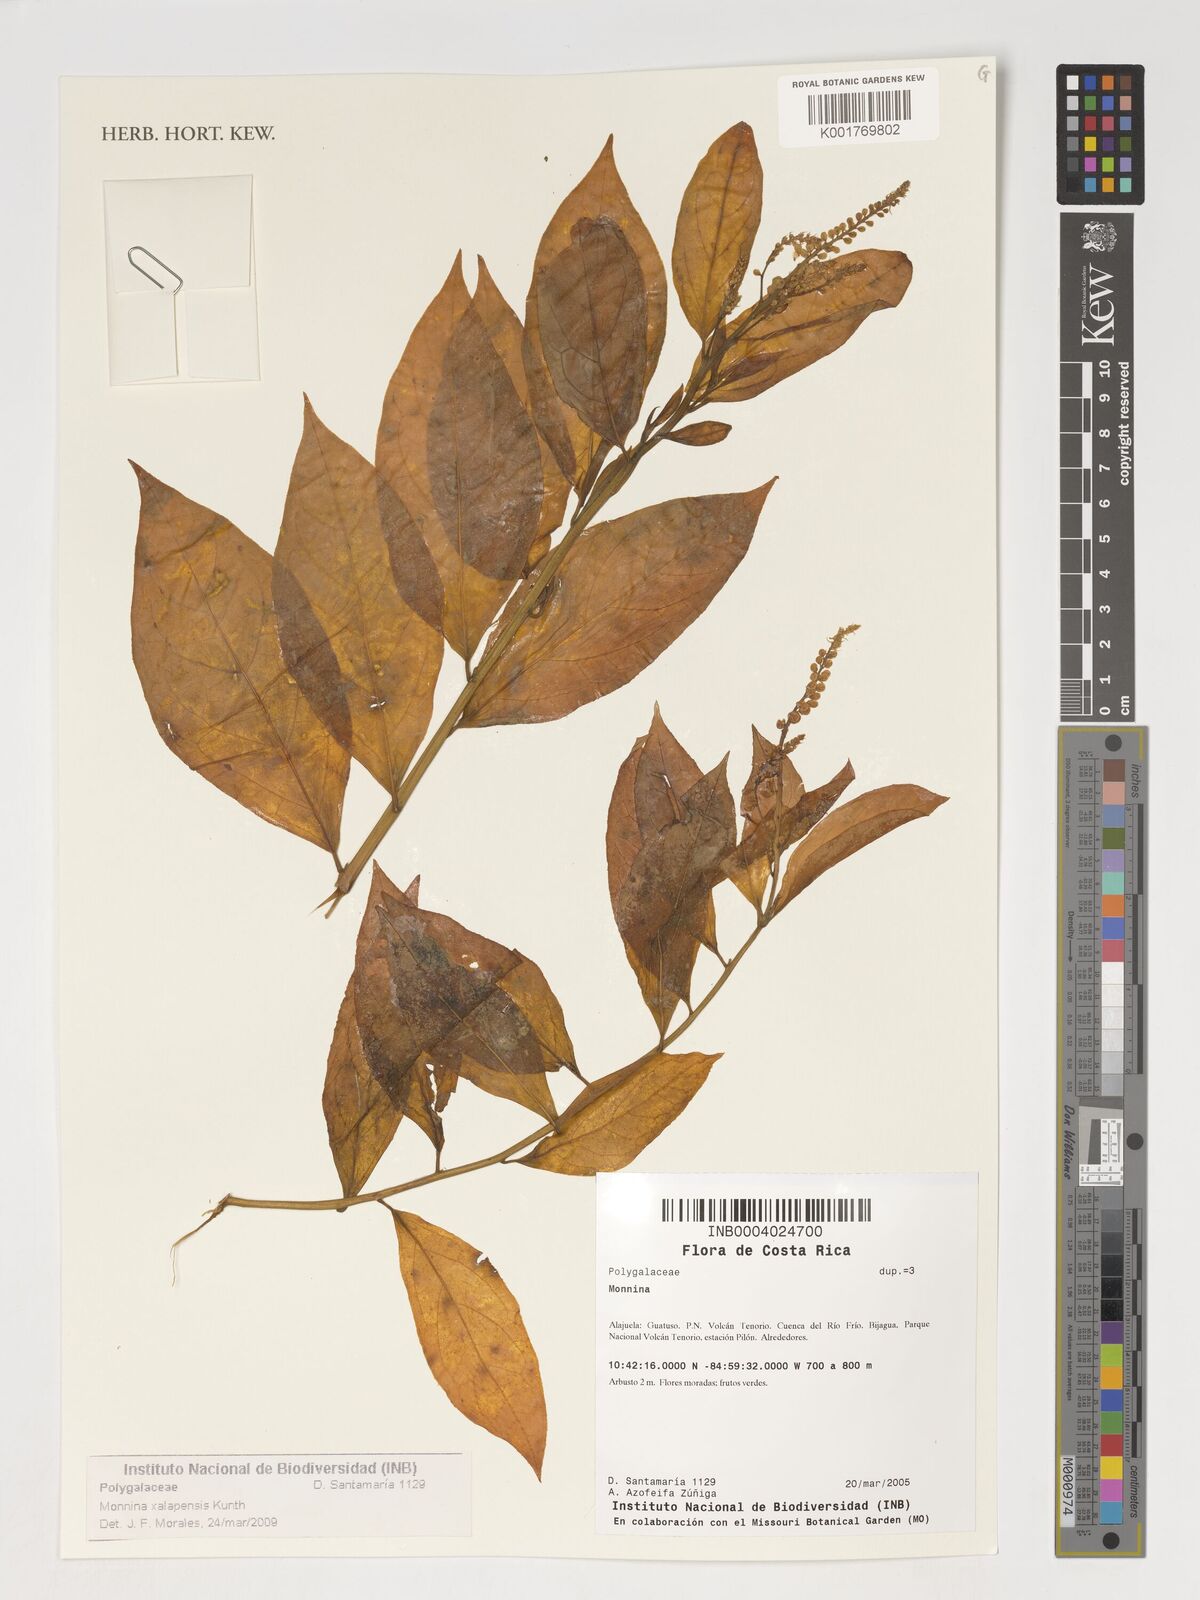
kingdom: Plantae
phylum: Tracheophyta
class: Magnoliopsida
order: Fabales
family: Polygalaceae
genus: Monnina
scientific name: Monnina xalapensis
